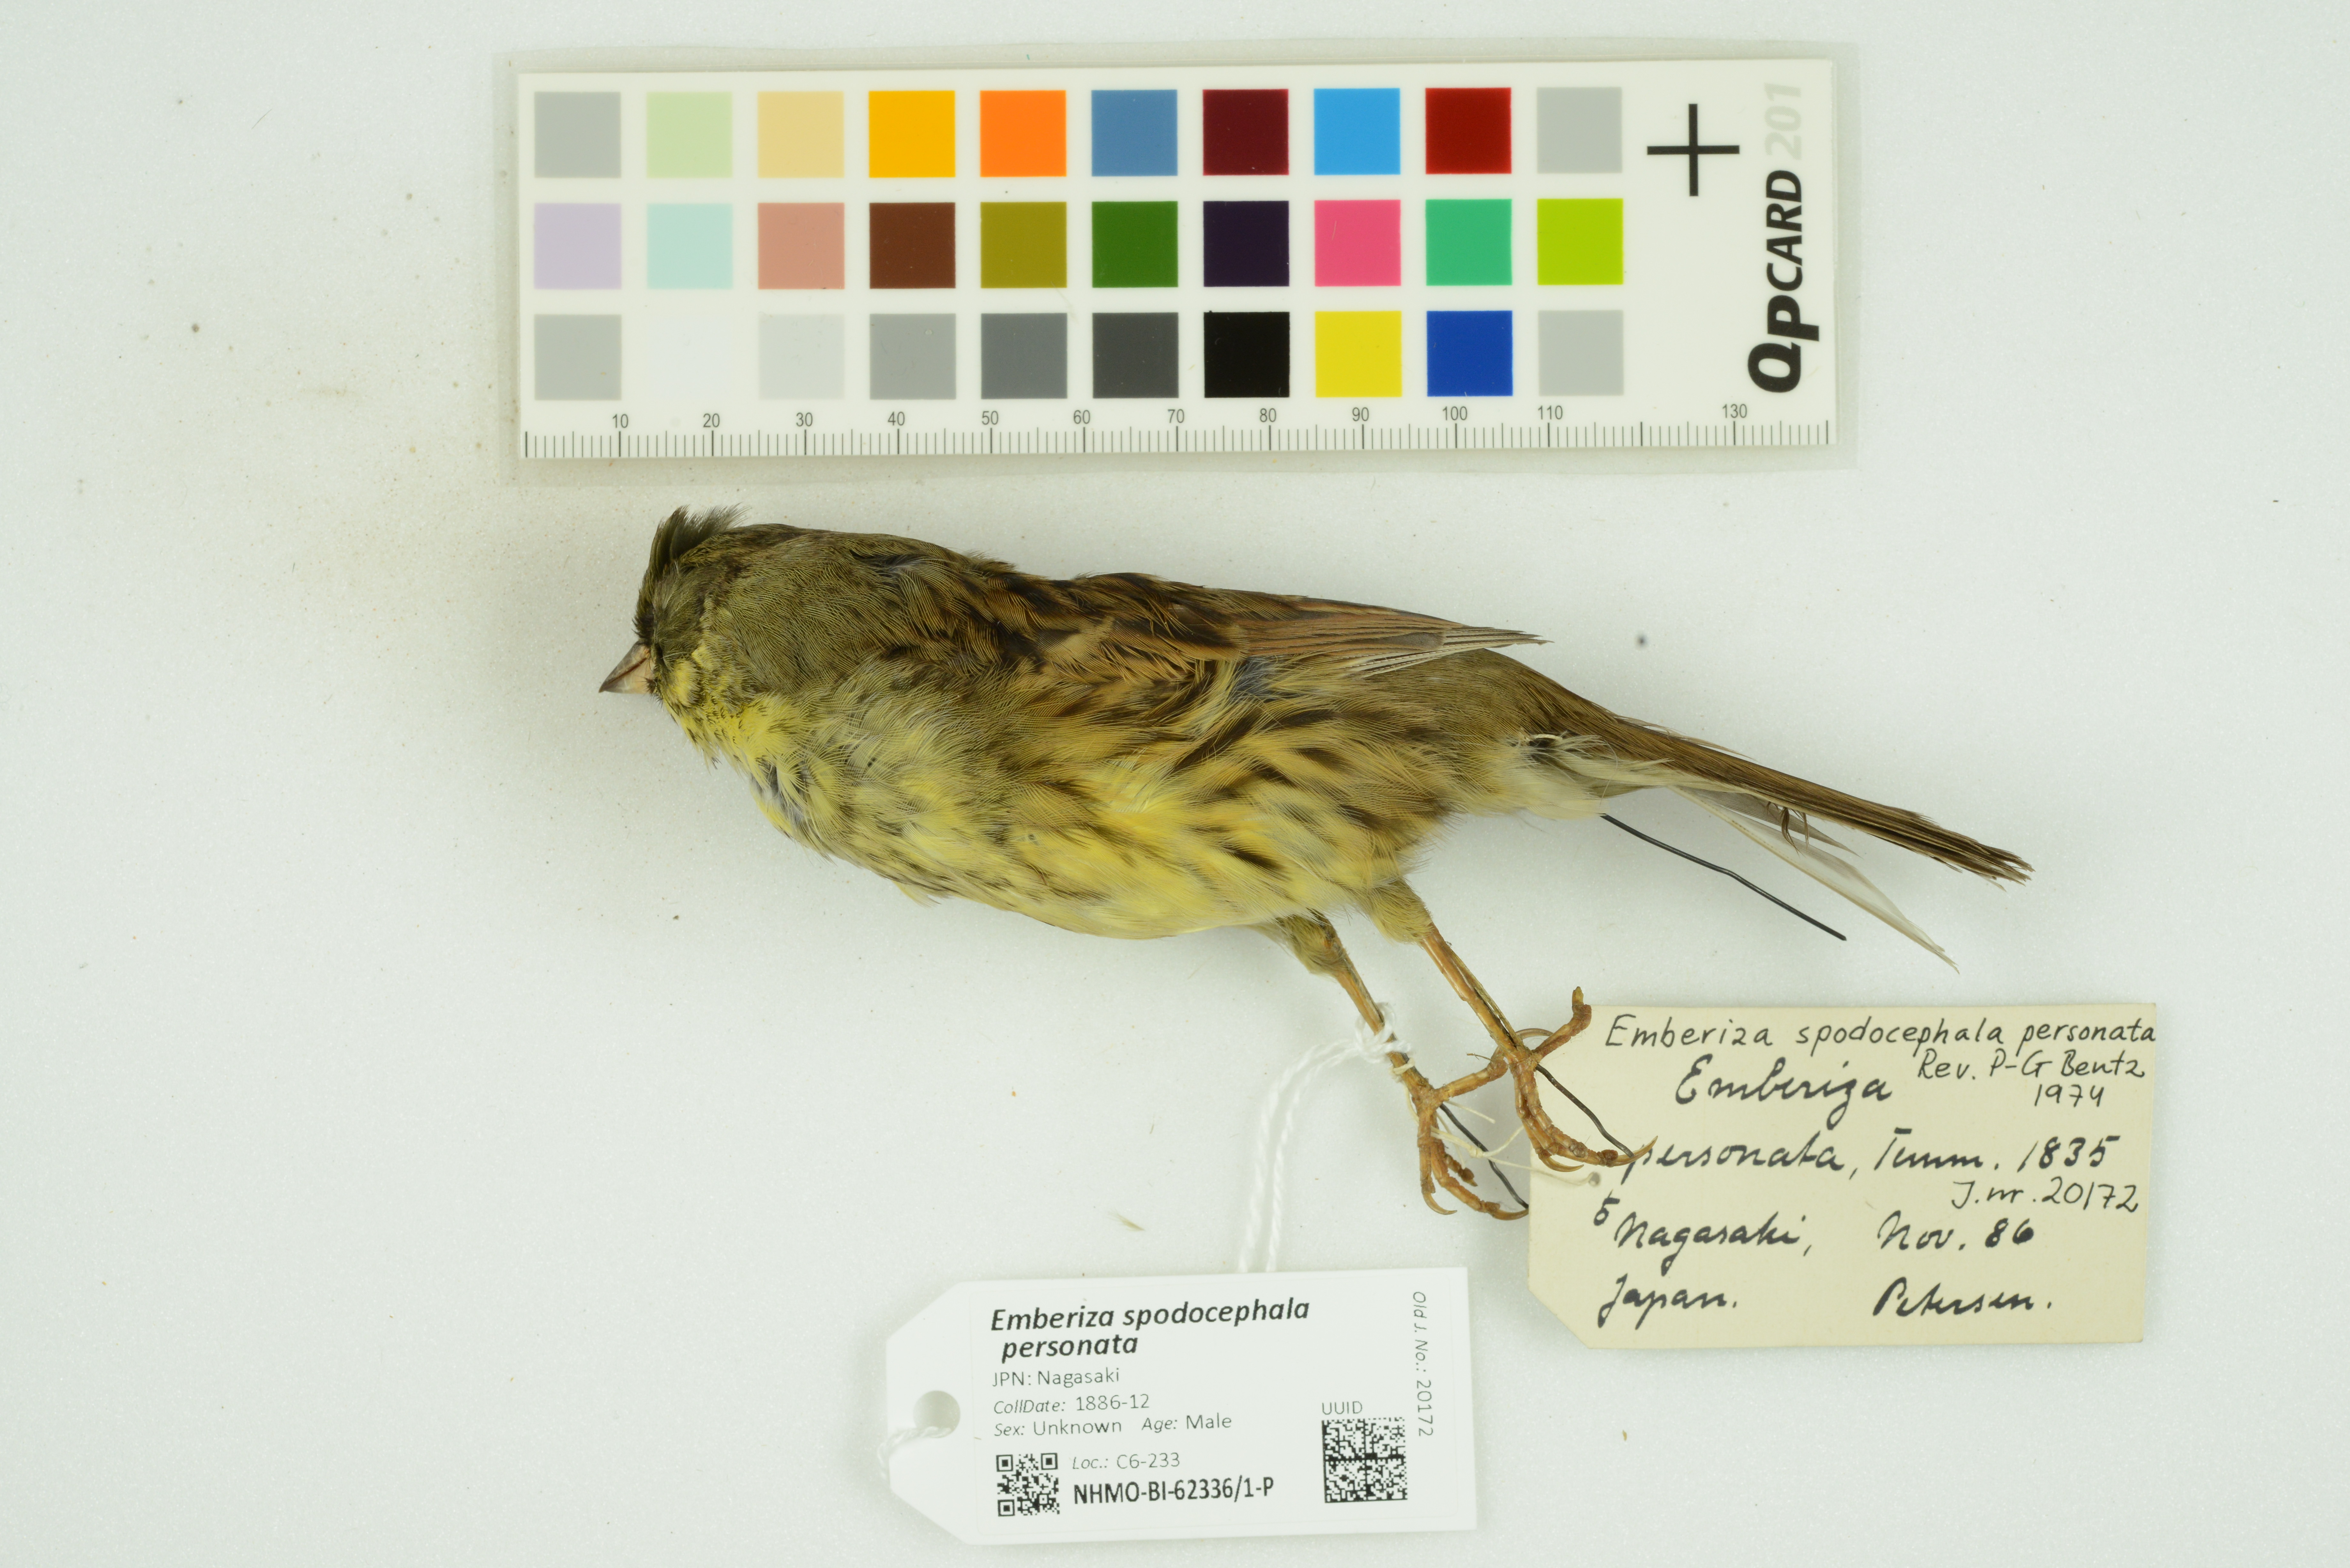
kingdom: Animalia
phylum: Chordata
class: Aves
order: Passeriformes
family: Emberizidae
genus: Emberiza
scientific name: Emberiza personata
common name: Masked bunting
